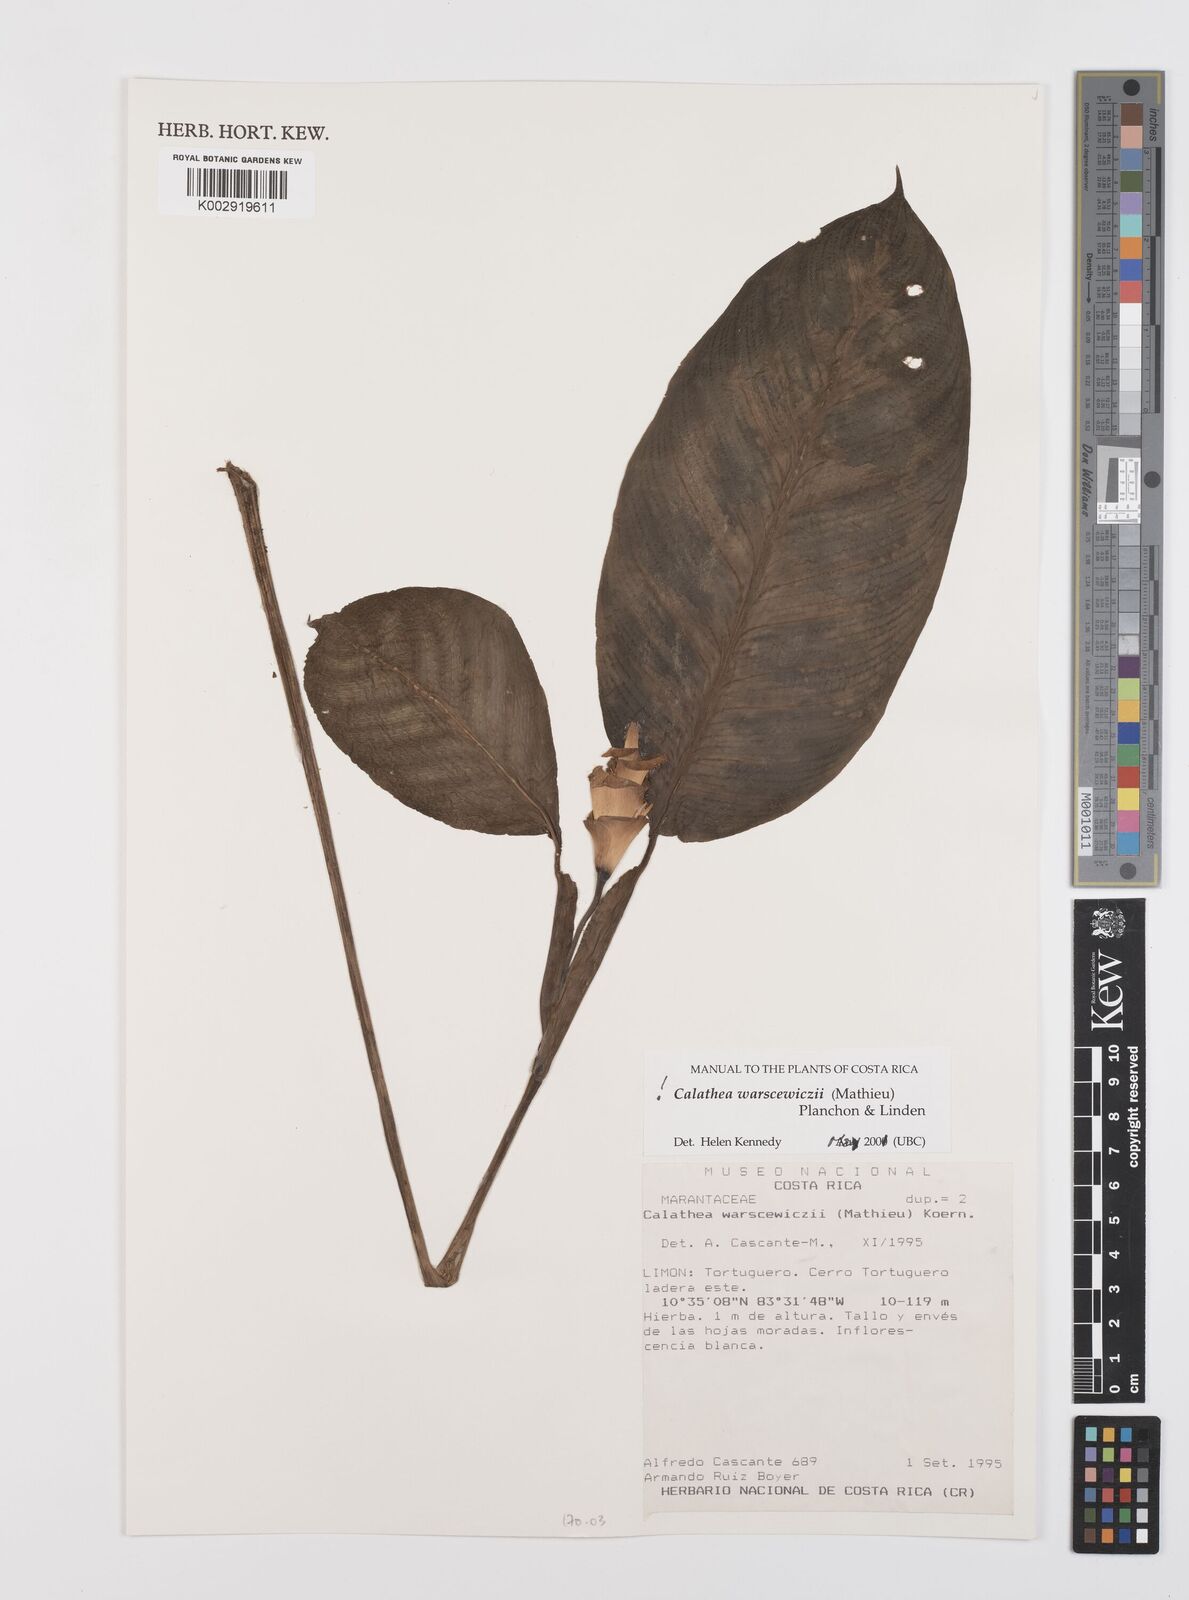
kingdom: Plantae
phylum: Tracheophyta
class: Liliopsida
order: Zingiberales
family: Marantaceae
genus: Goeppertia
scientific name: Goeppertia warszewiczii
